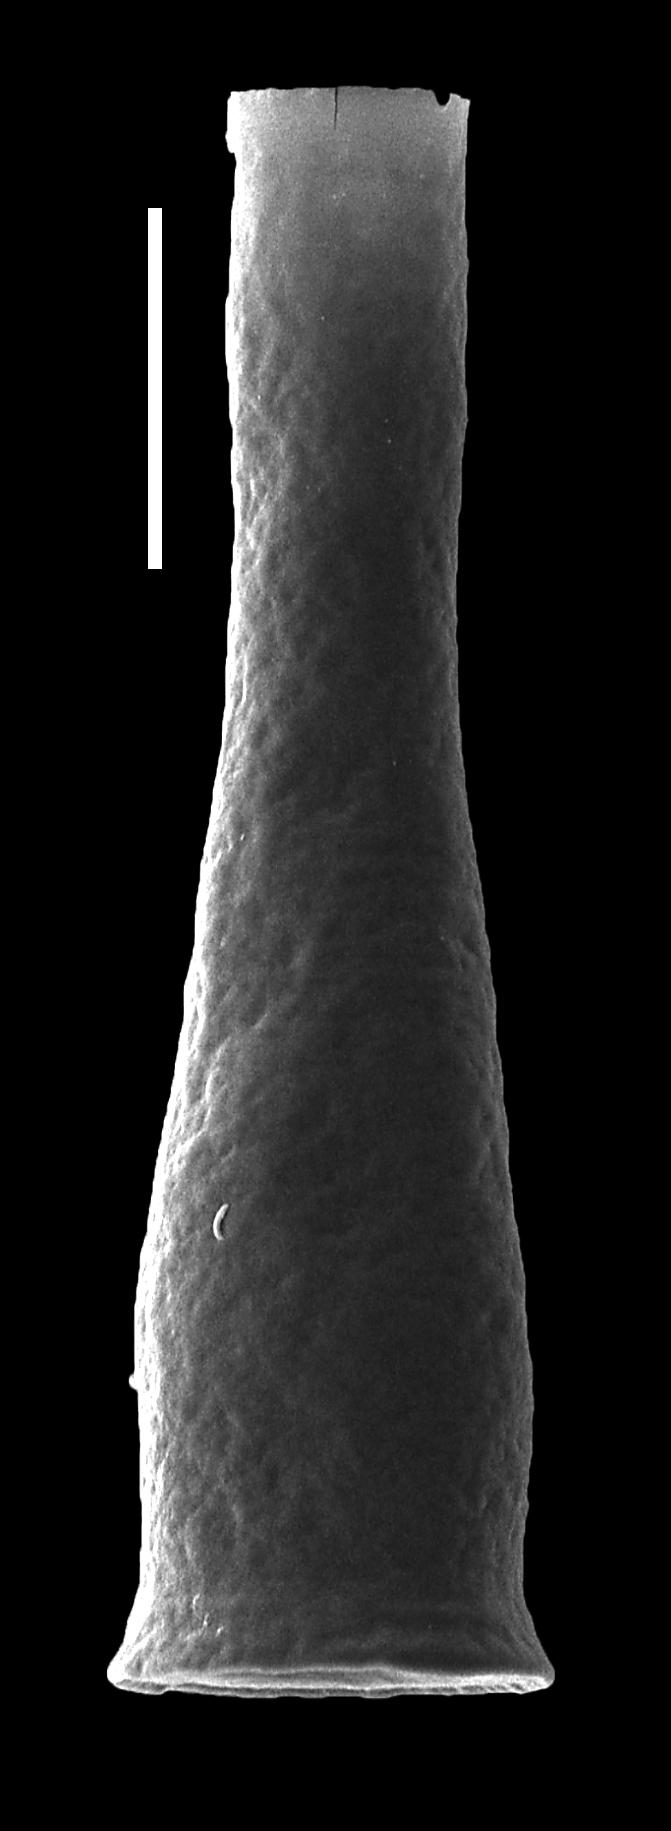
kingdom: Animalia
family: Conochitinidae
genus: Conochitina
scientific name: Conochitina
